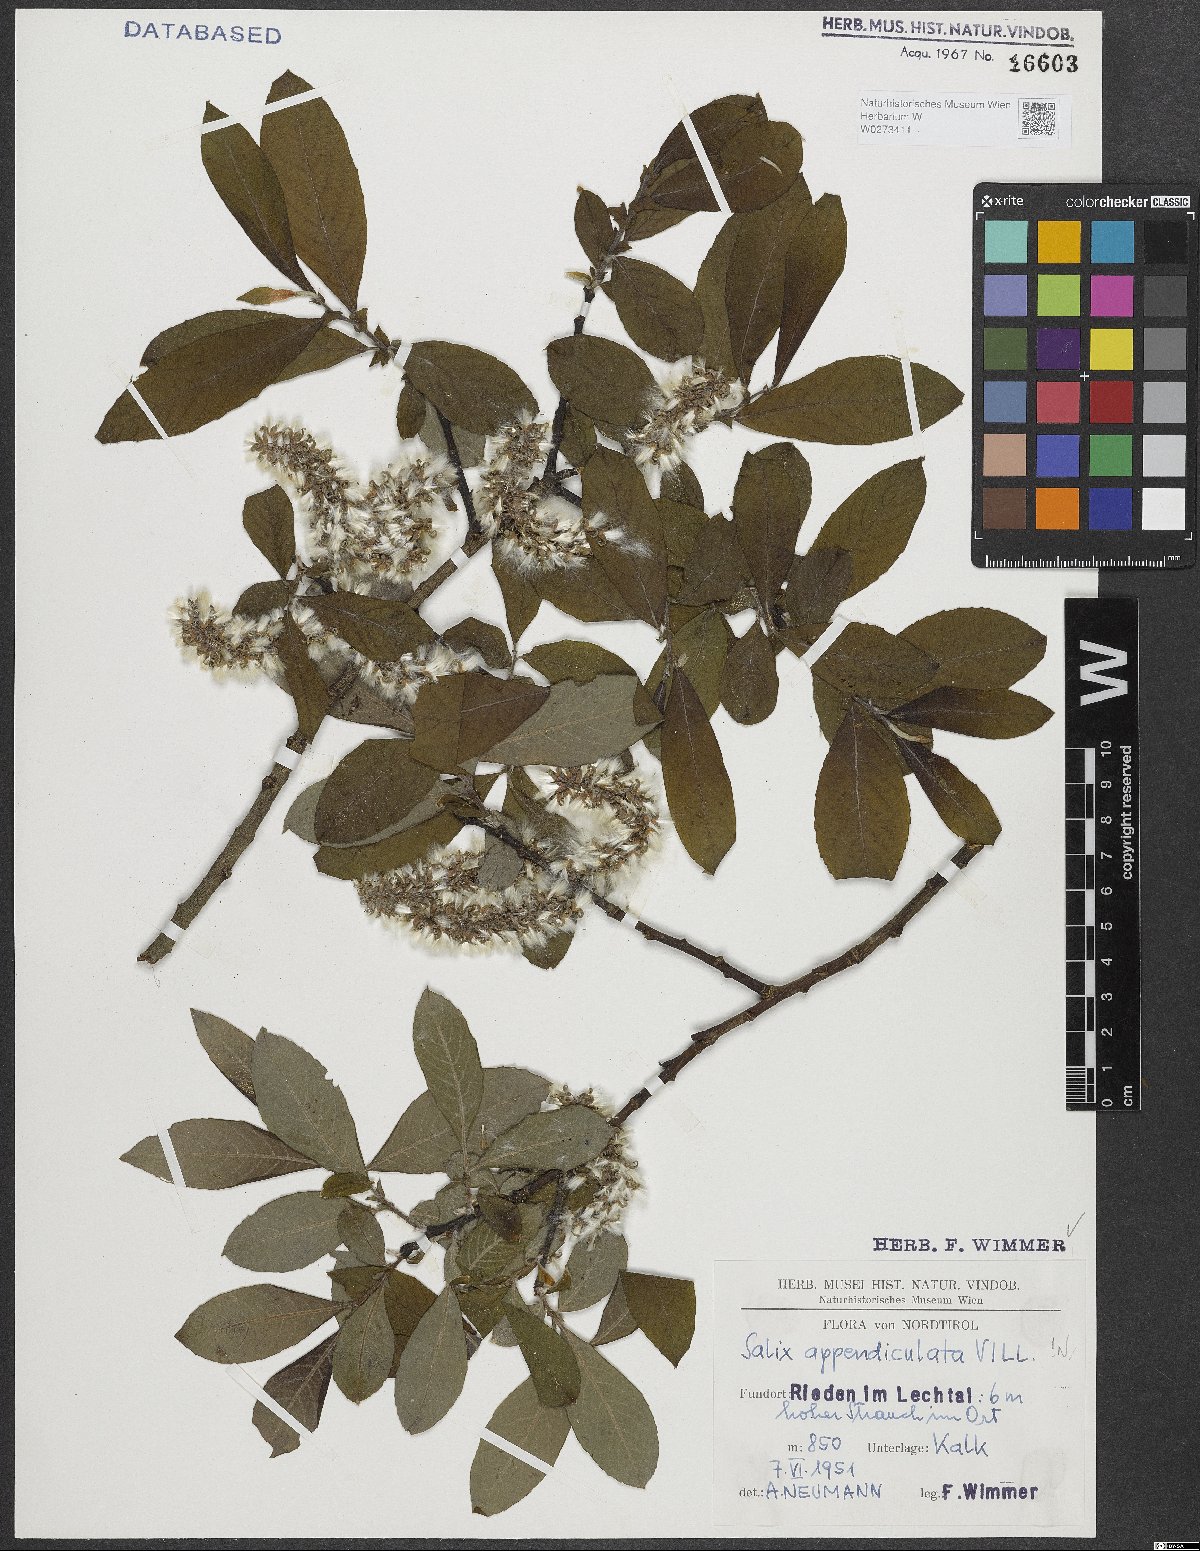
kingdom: Plantae
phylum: Tracheophyta
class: Magnoliopsida
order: Malpighiales
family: Salicaceae
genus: Salix
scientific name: Salix appendiculata
